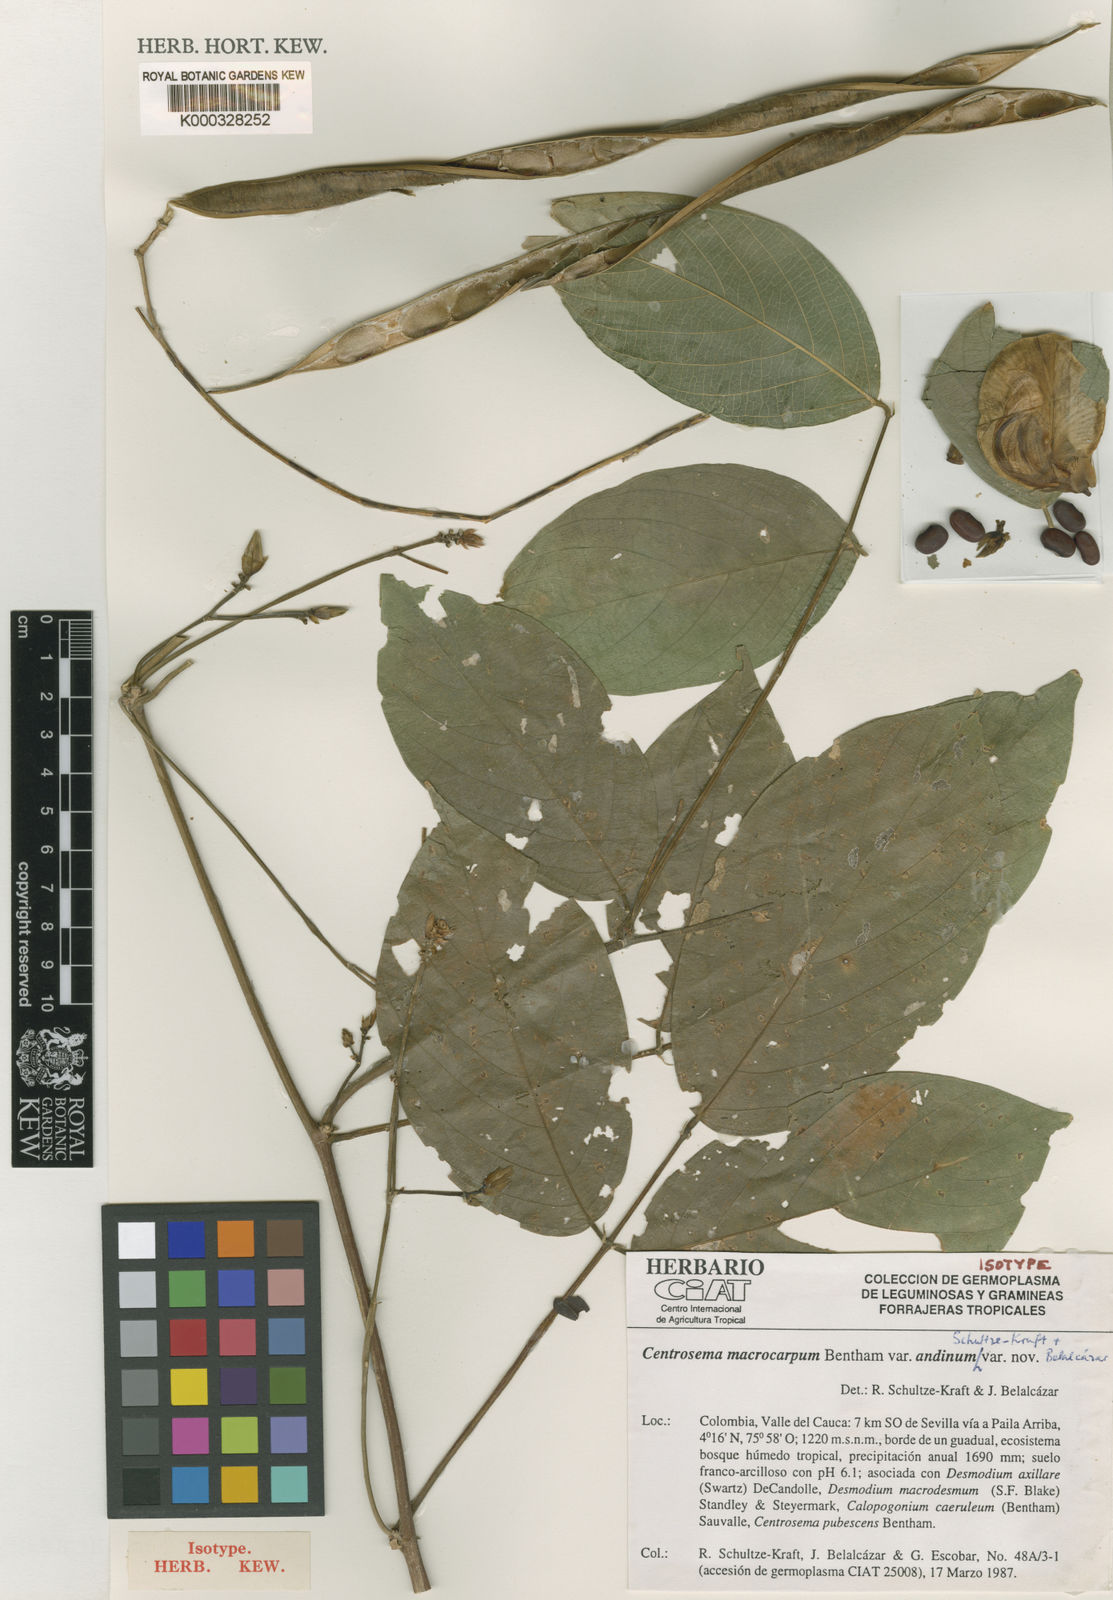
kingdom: Plantae
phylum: Tracheophyta
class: Magnoliopsida
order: Fabales
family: Fabaceae
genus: Centrosema
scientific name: Centrosema macrocarpum
